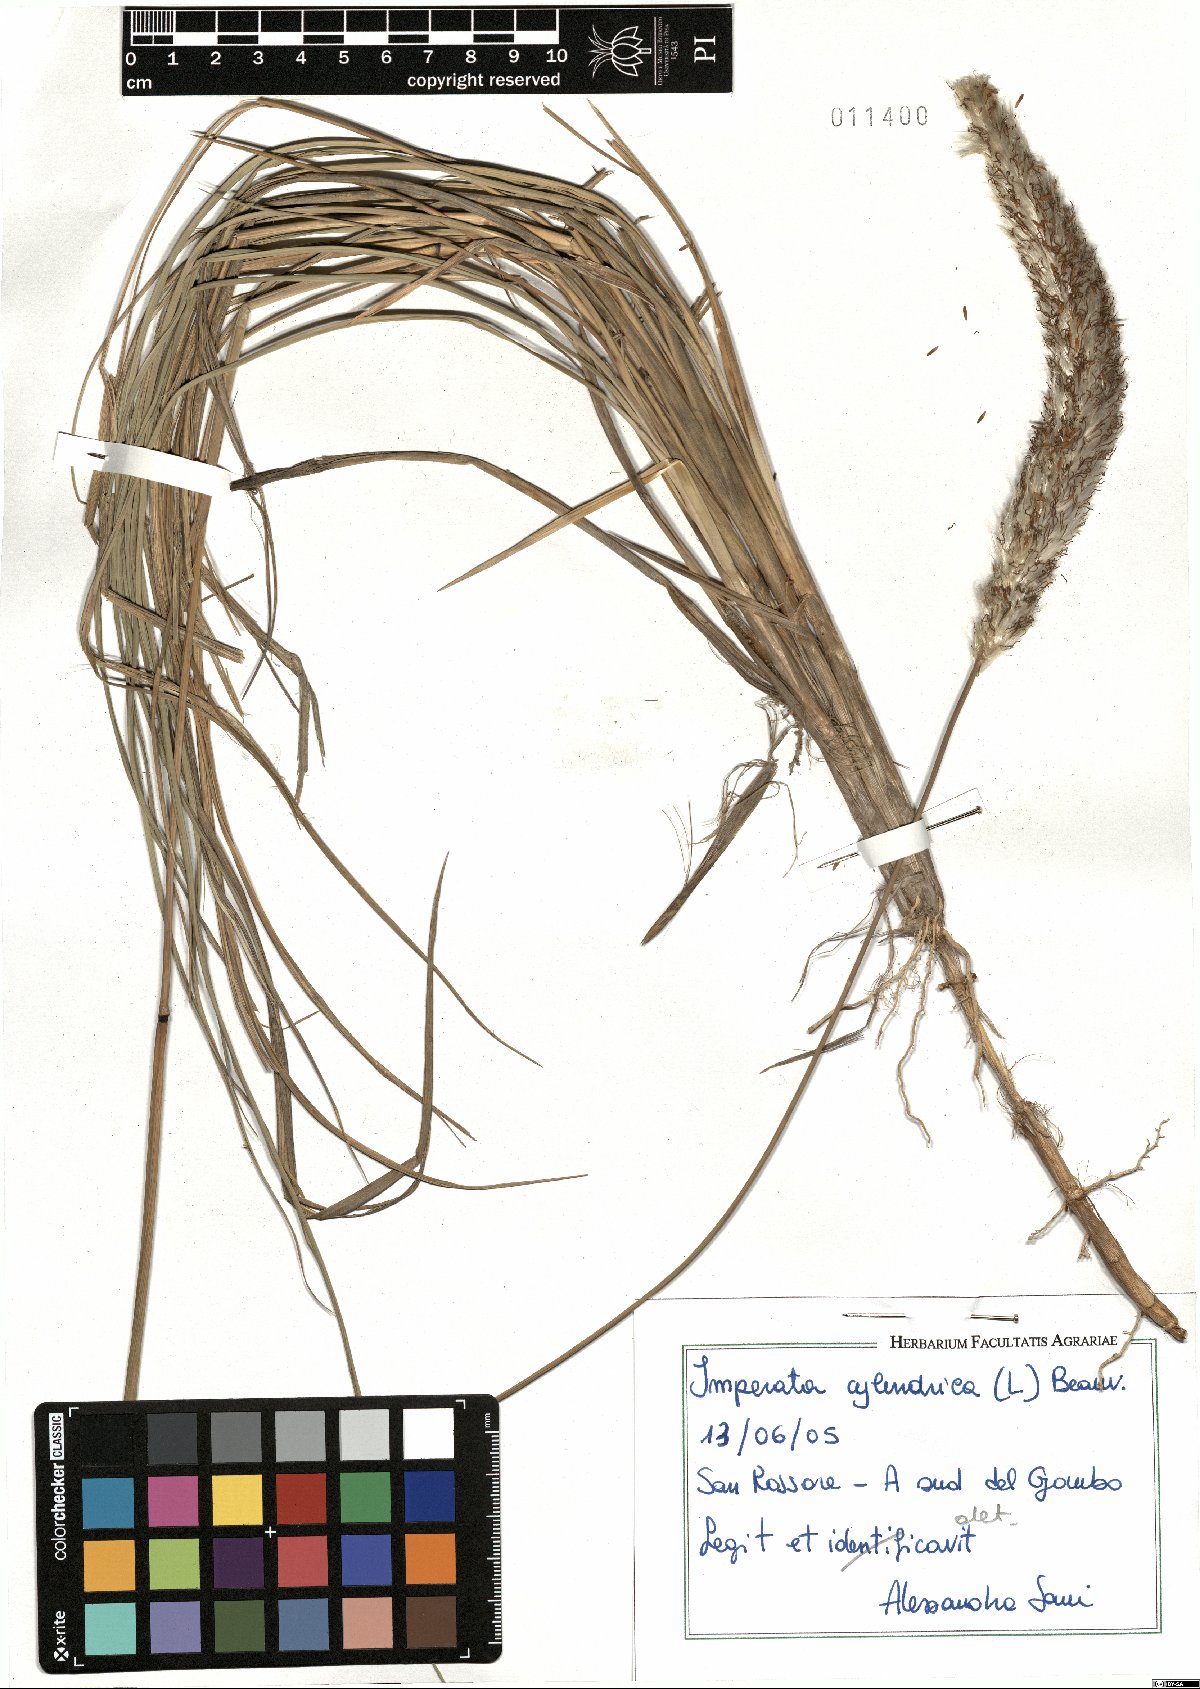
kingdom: Plantae
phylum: Tracheophyta
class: Liliopsida
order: Poales
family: Poaceae
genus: Imperata
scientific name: Imperata cylindrica
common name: Cogongrass
